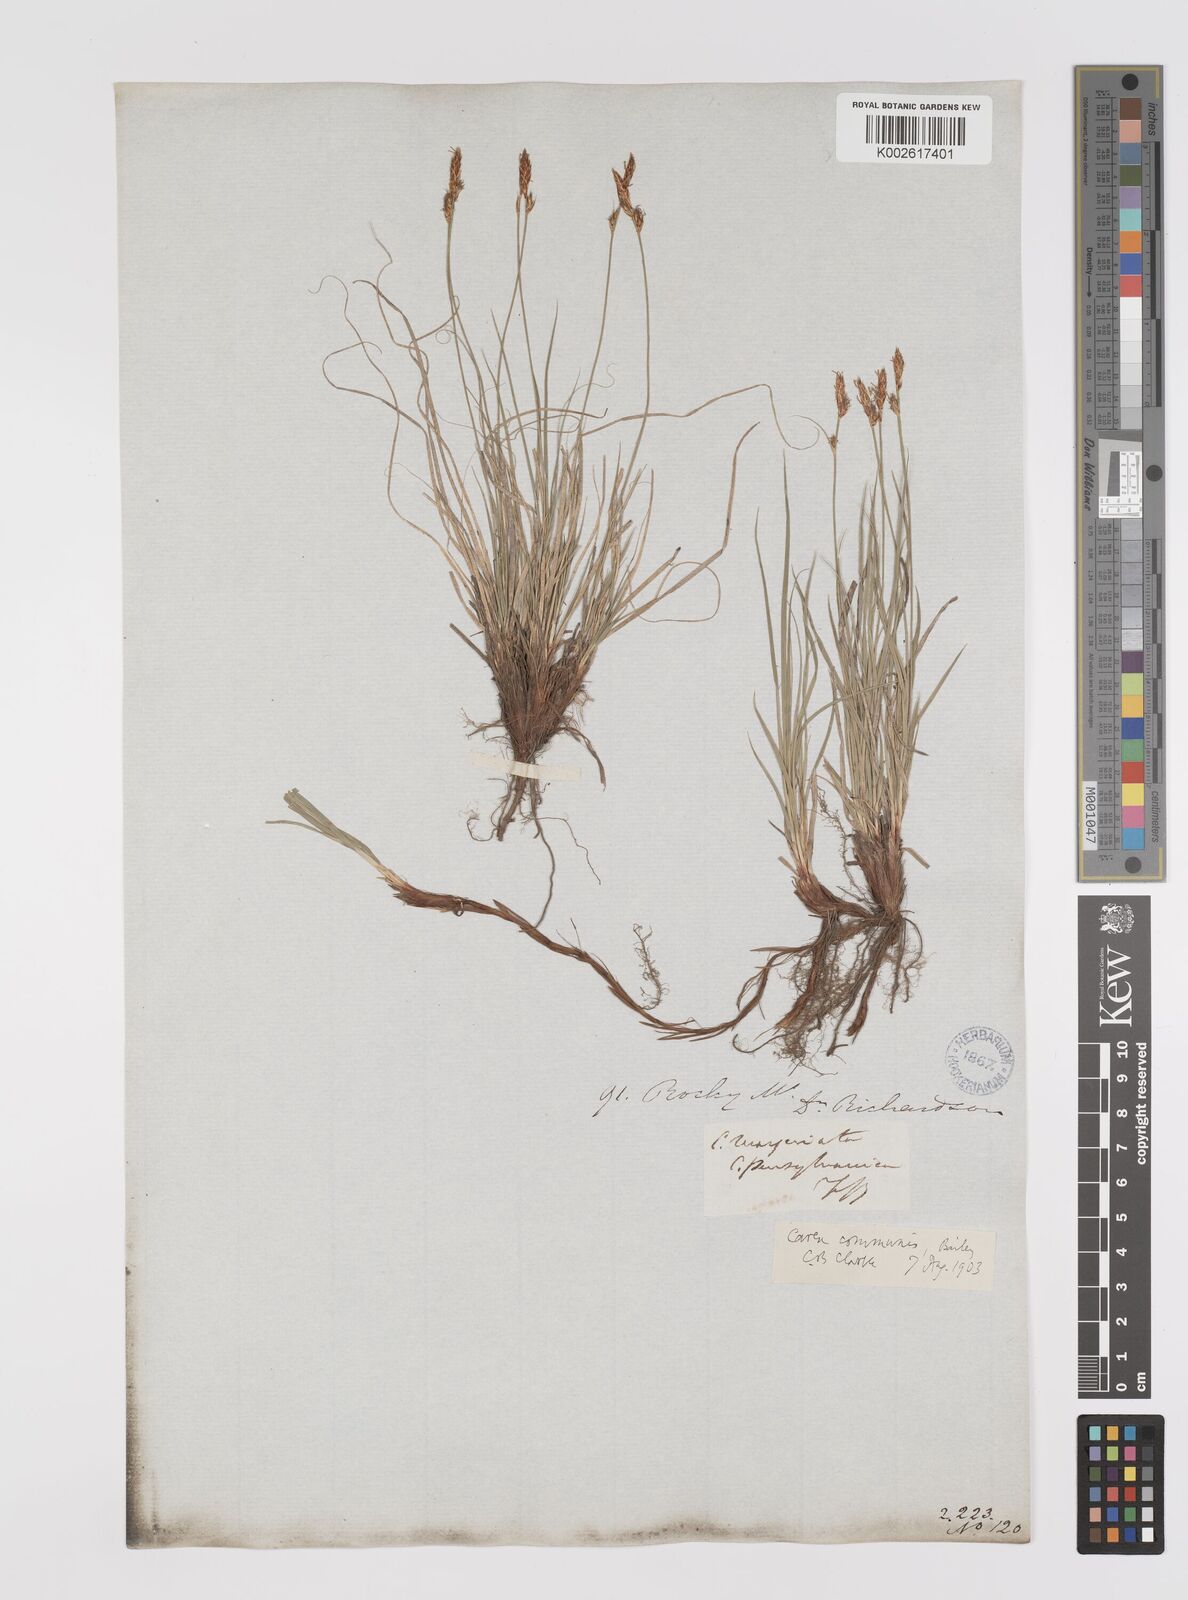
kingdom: Plantae
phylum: Tracheophyta
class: Liliopsida
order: Poales
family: Cyperaceae
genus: Carex
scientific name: Carex communis
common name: Colonial oak sedge
